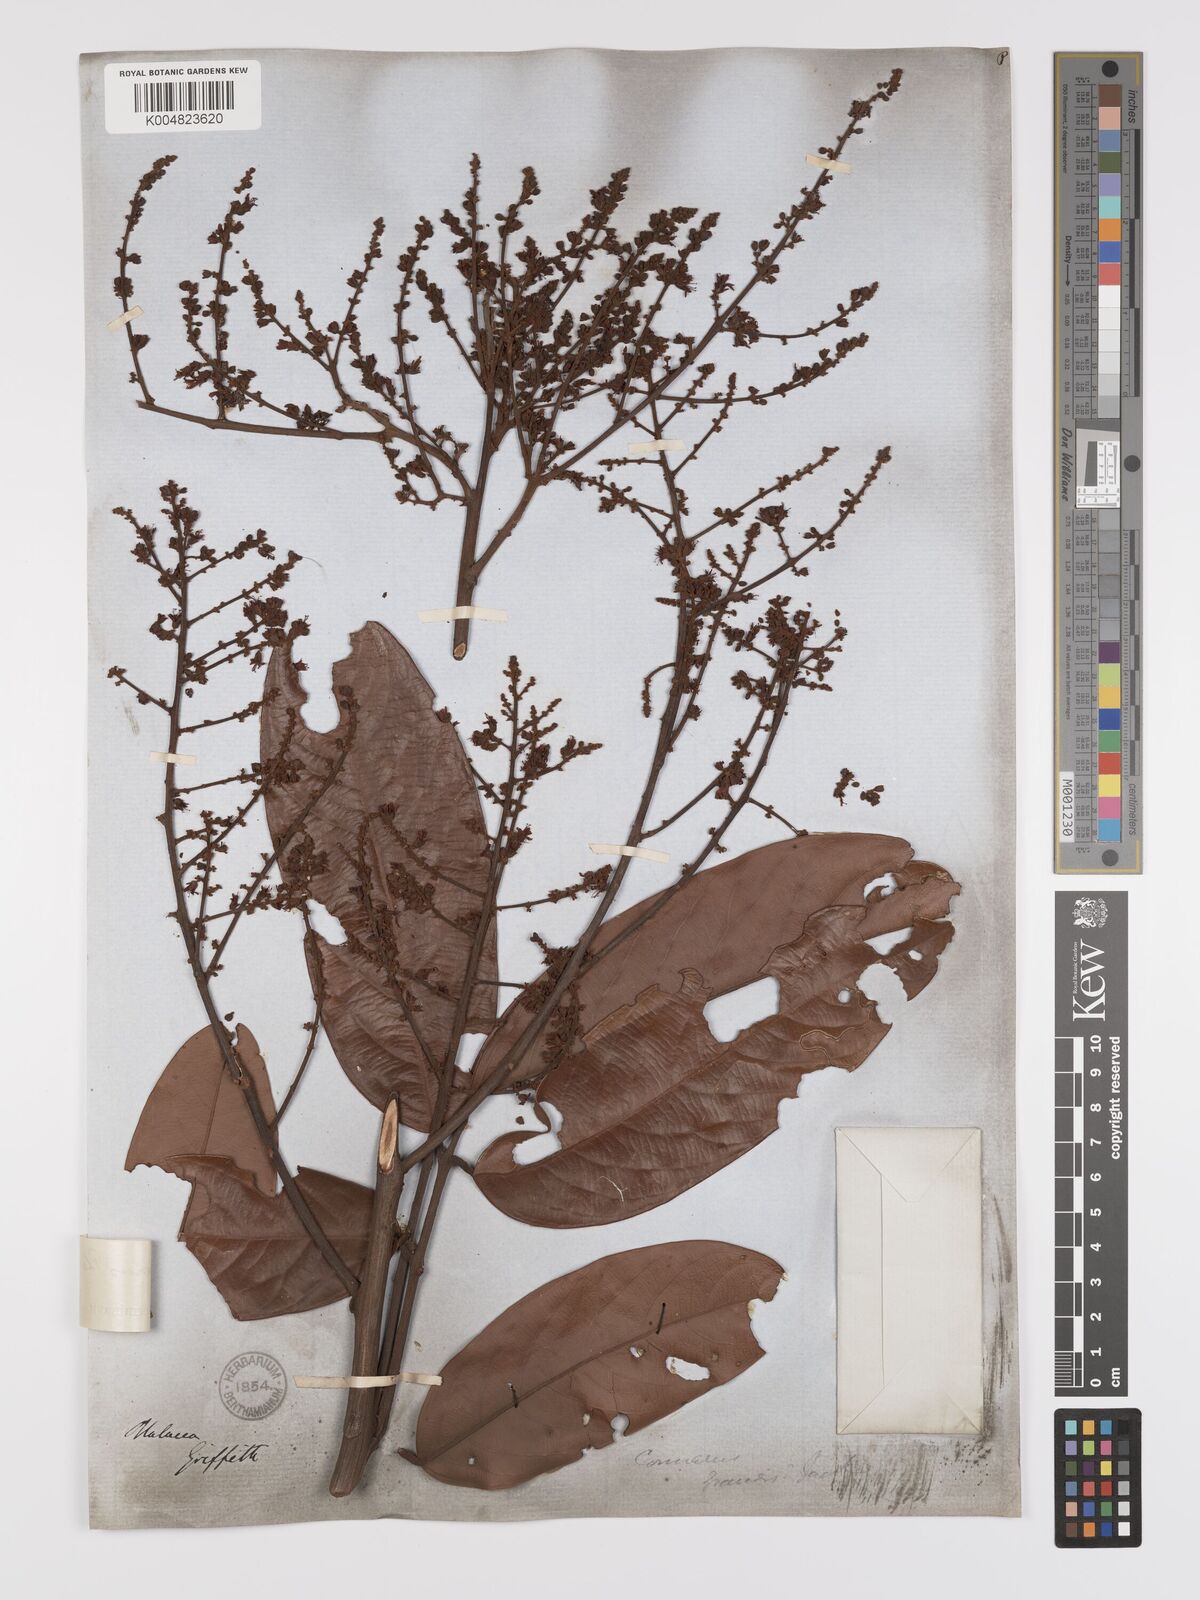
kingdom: Plantae
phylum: Tracheophyta
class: Magnoliopsida
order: Oxalidales
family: Connaraceae
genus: Connarus
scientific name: Connarus planchonianus
